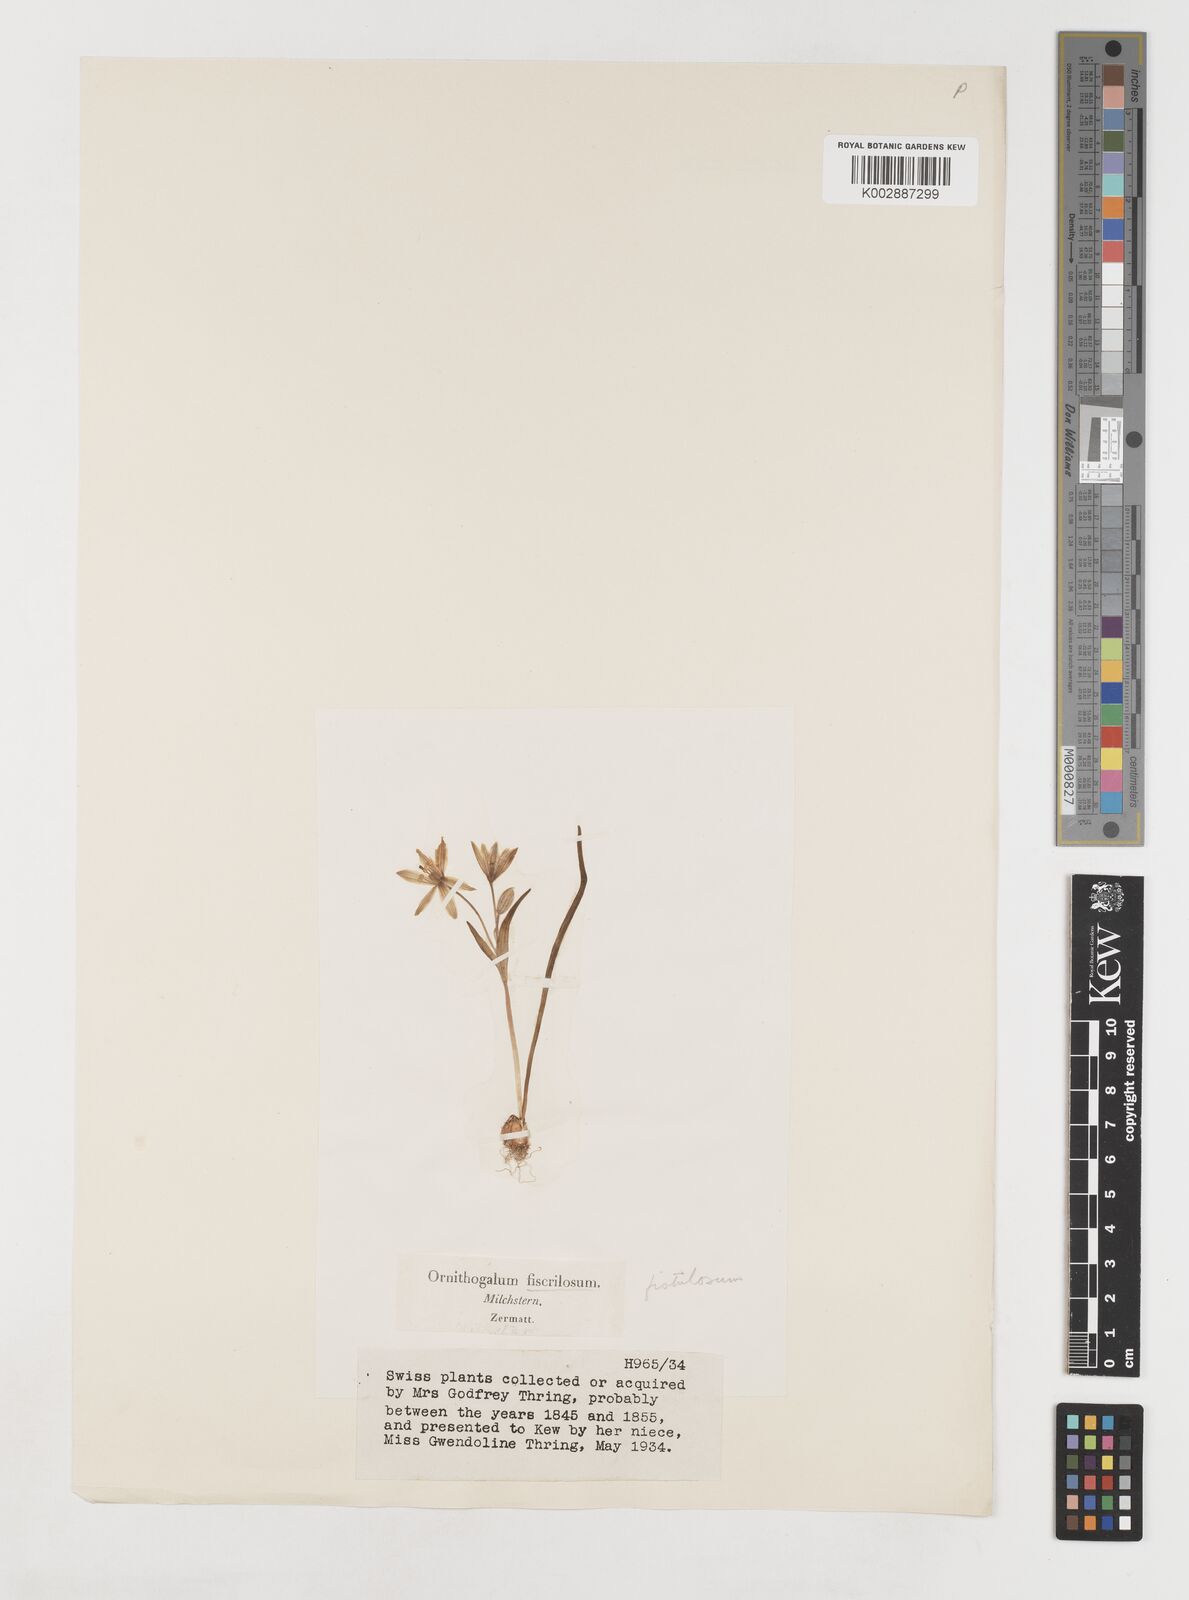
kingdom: Plantae
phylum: Tracheophyta
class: Liliopsida
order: Liliales
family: Liliaceae
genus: Gagea
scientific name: Gagea bohemica
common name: Early star-of-bethlehem
